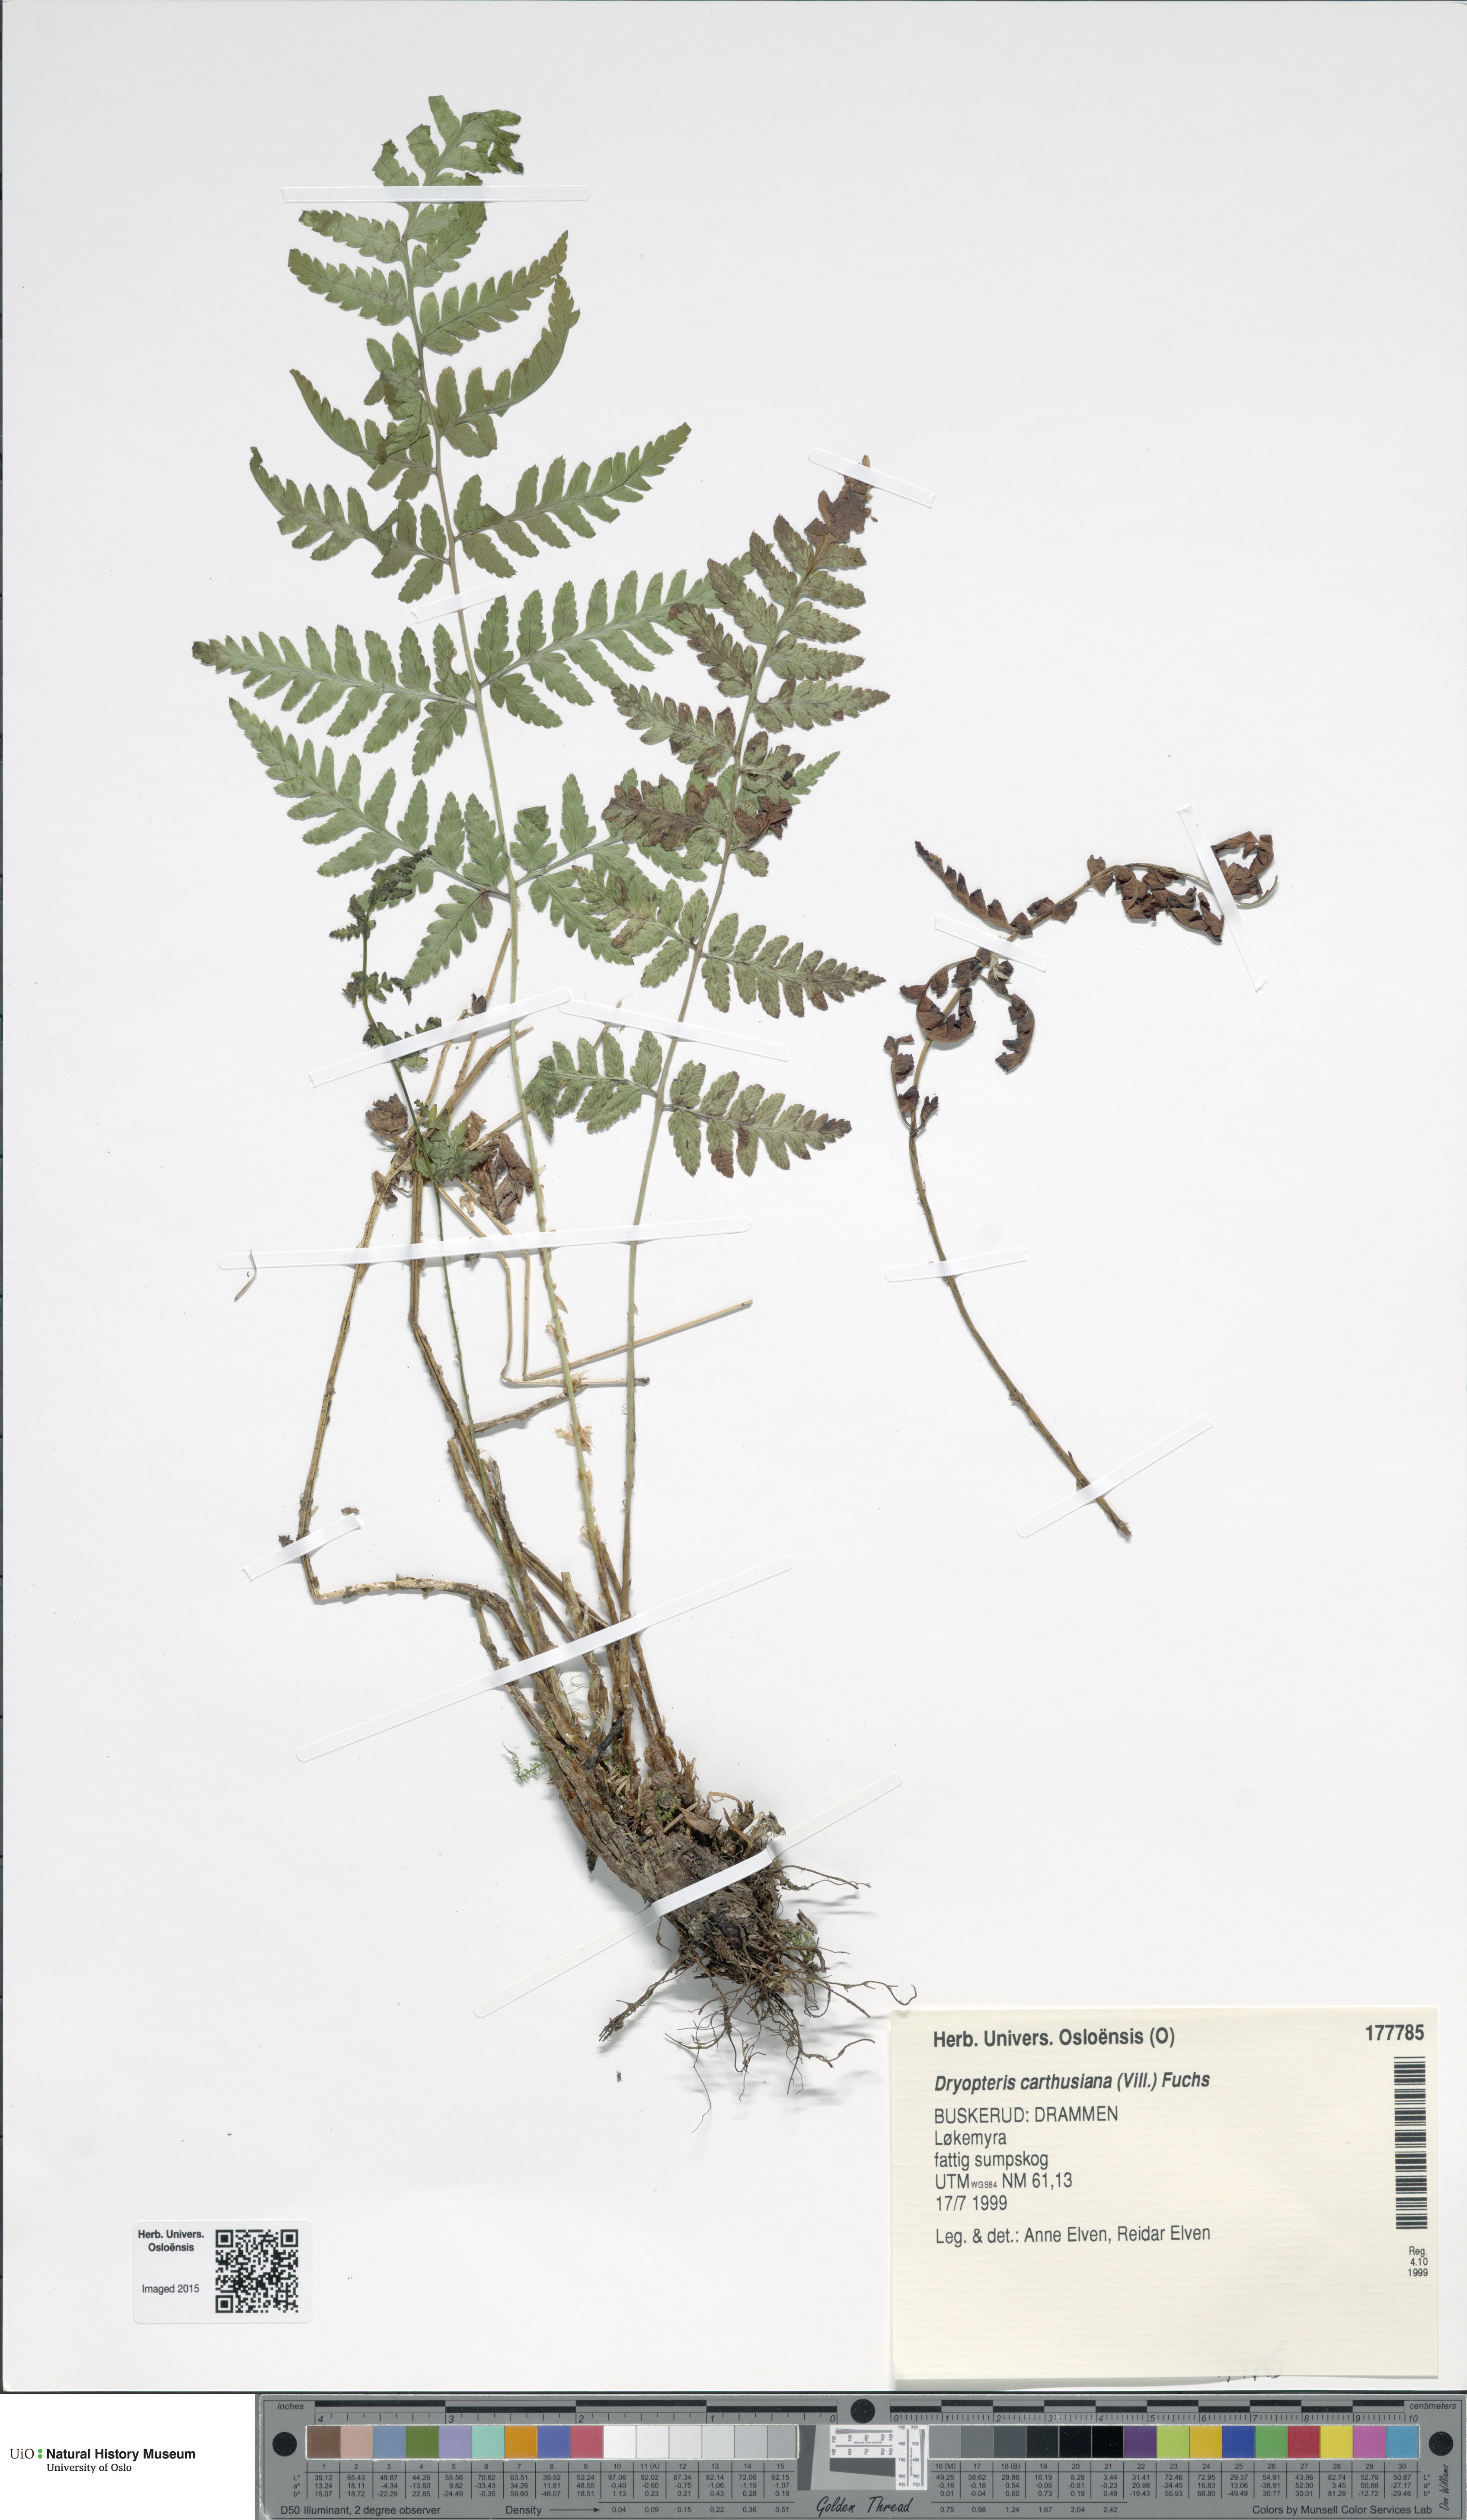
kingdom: Plantae
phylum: Tracheophyta
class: Polypodiopsida
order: Polypodiales
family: Dryopteridaceae
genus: Dryopteris
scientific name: Dryopteris carthusiana
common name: Narrow buckler-fern
